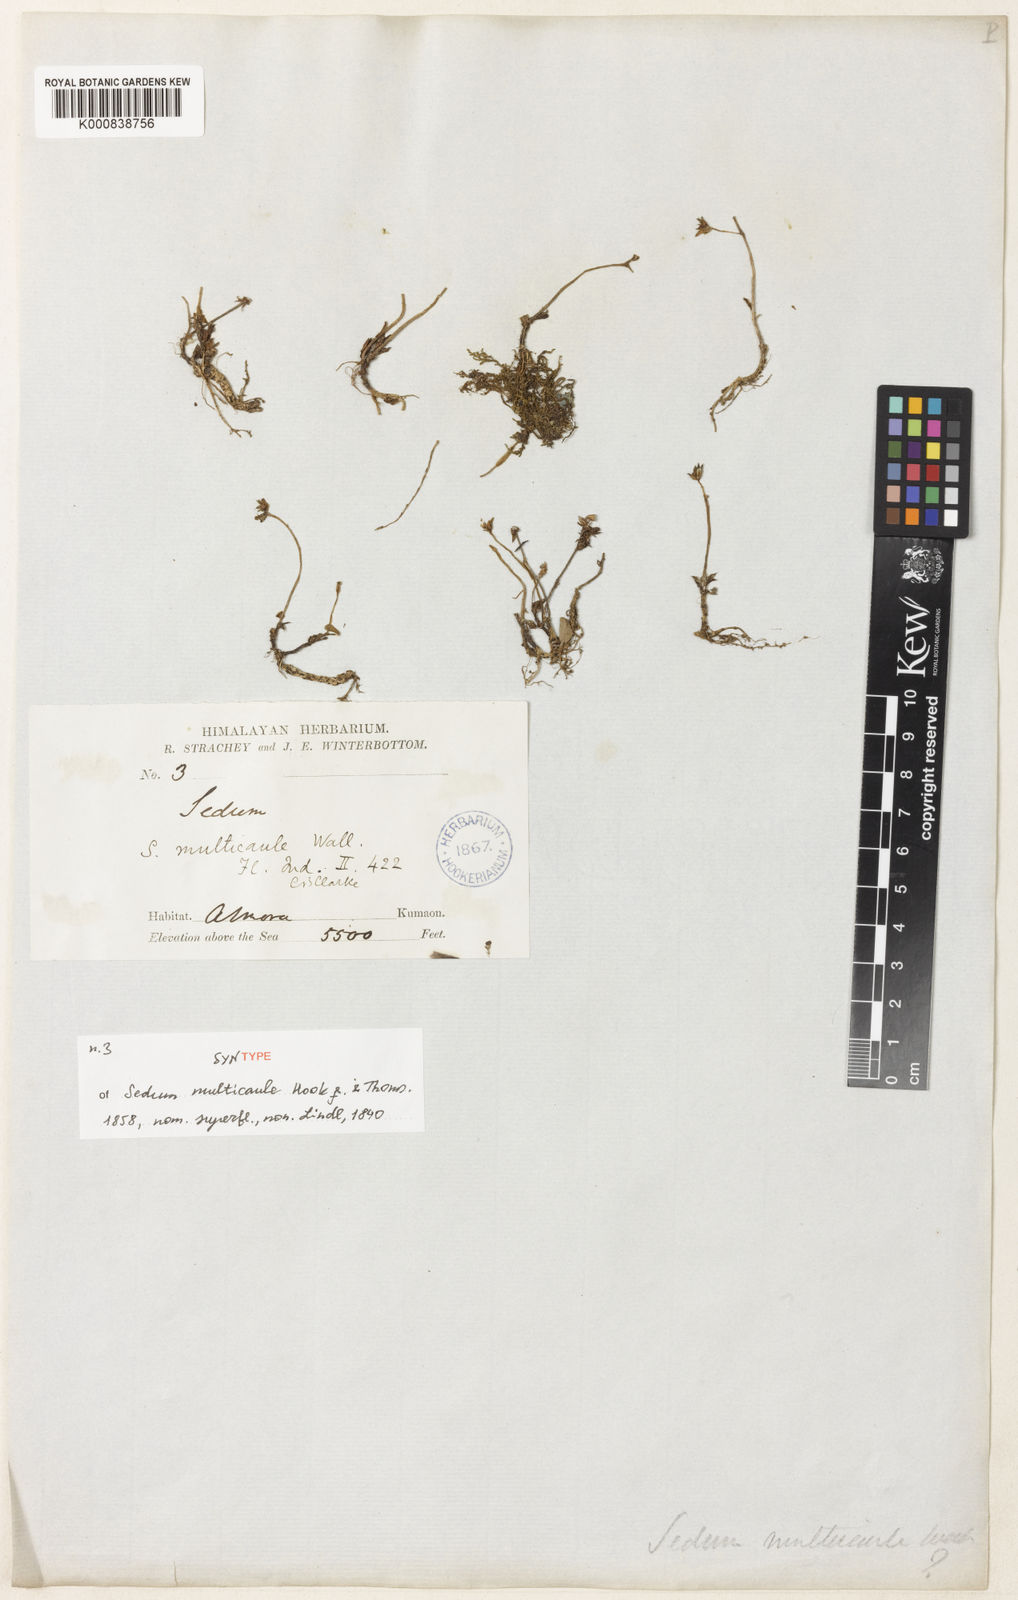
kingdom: Plantae
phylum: Tracheophyta
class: Magnoliopsida
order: Saxifragales
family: Crassulaceae
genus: Sedum
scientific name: Sedum
